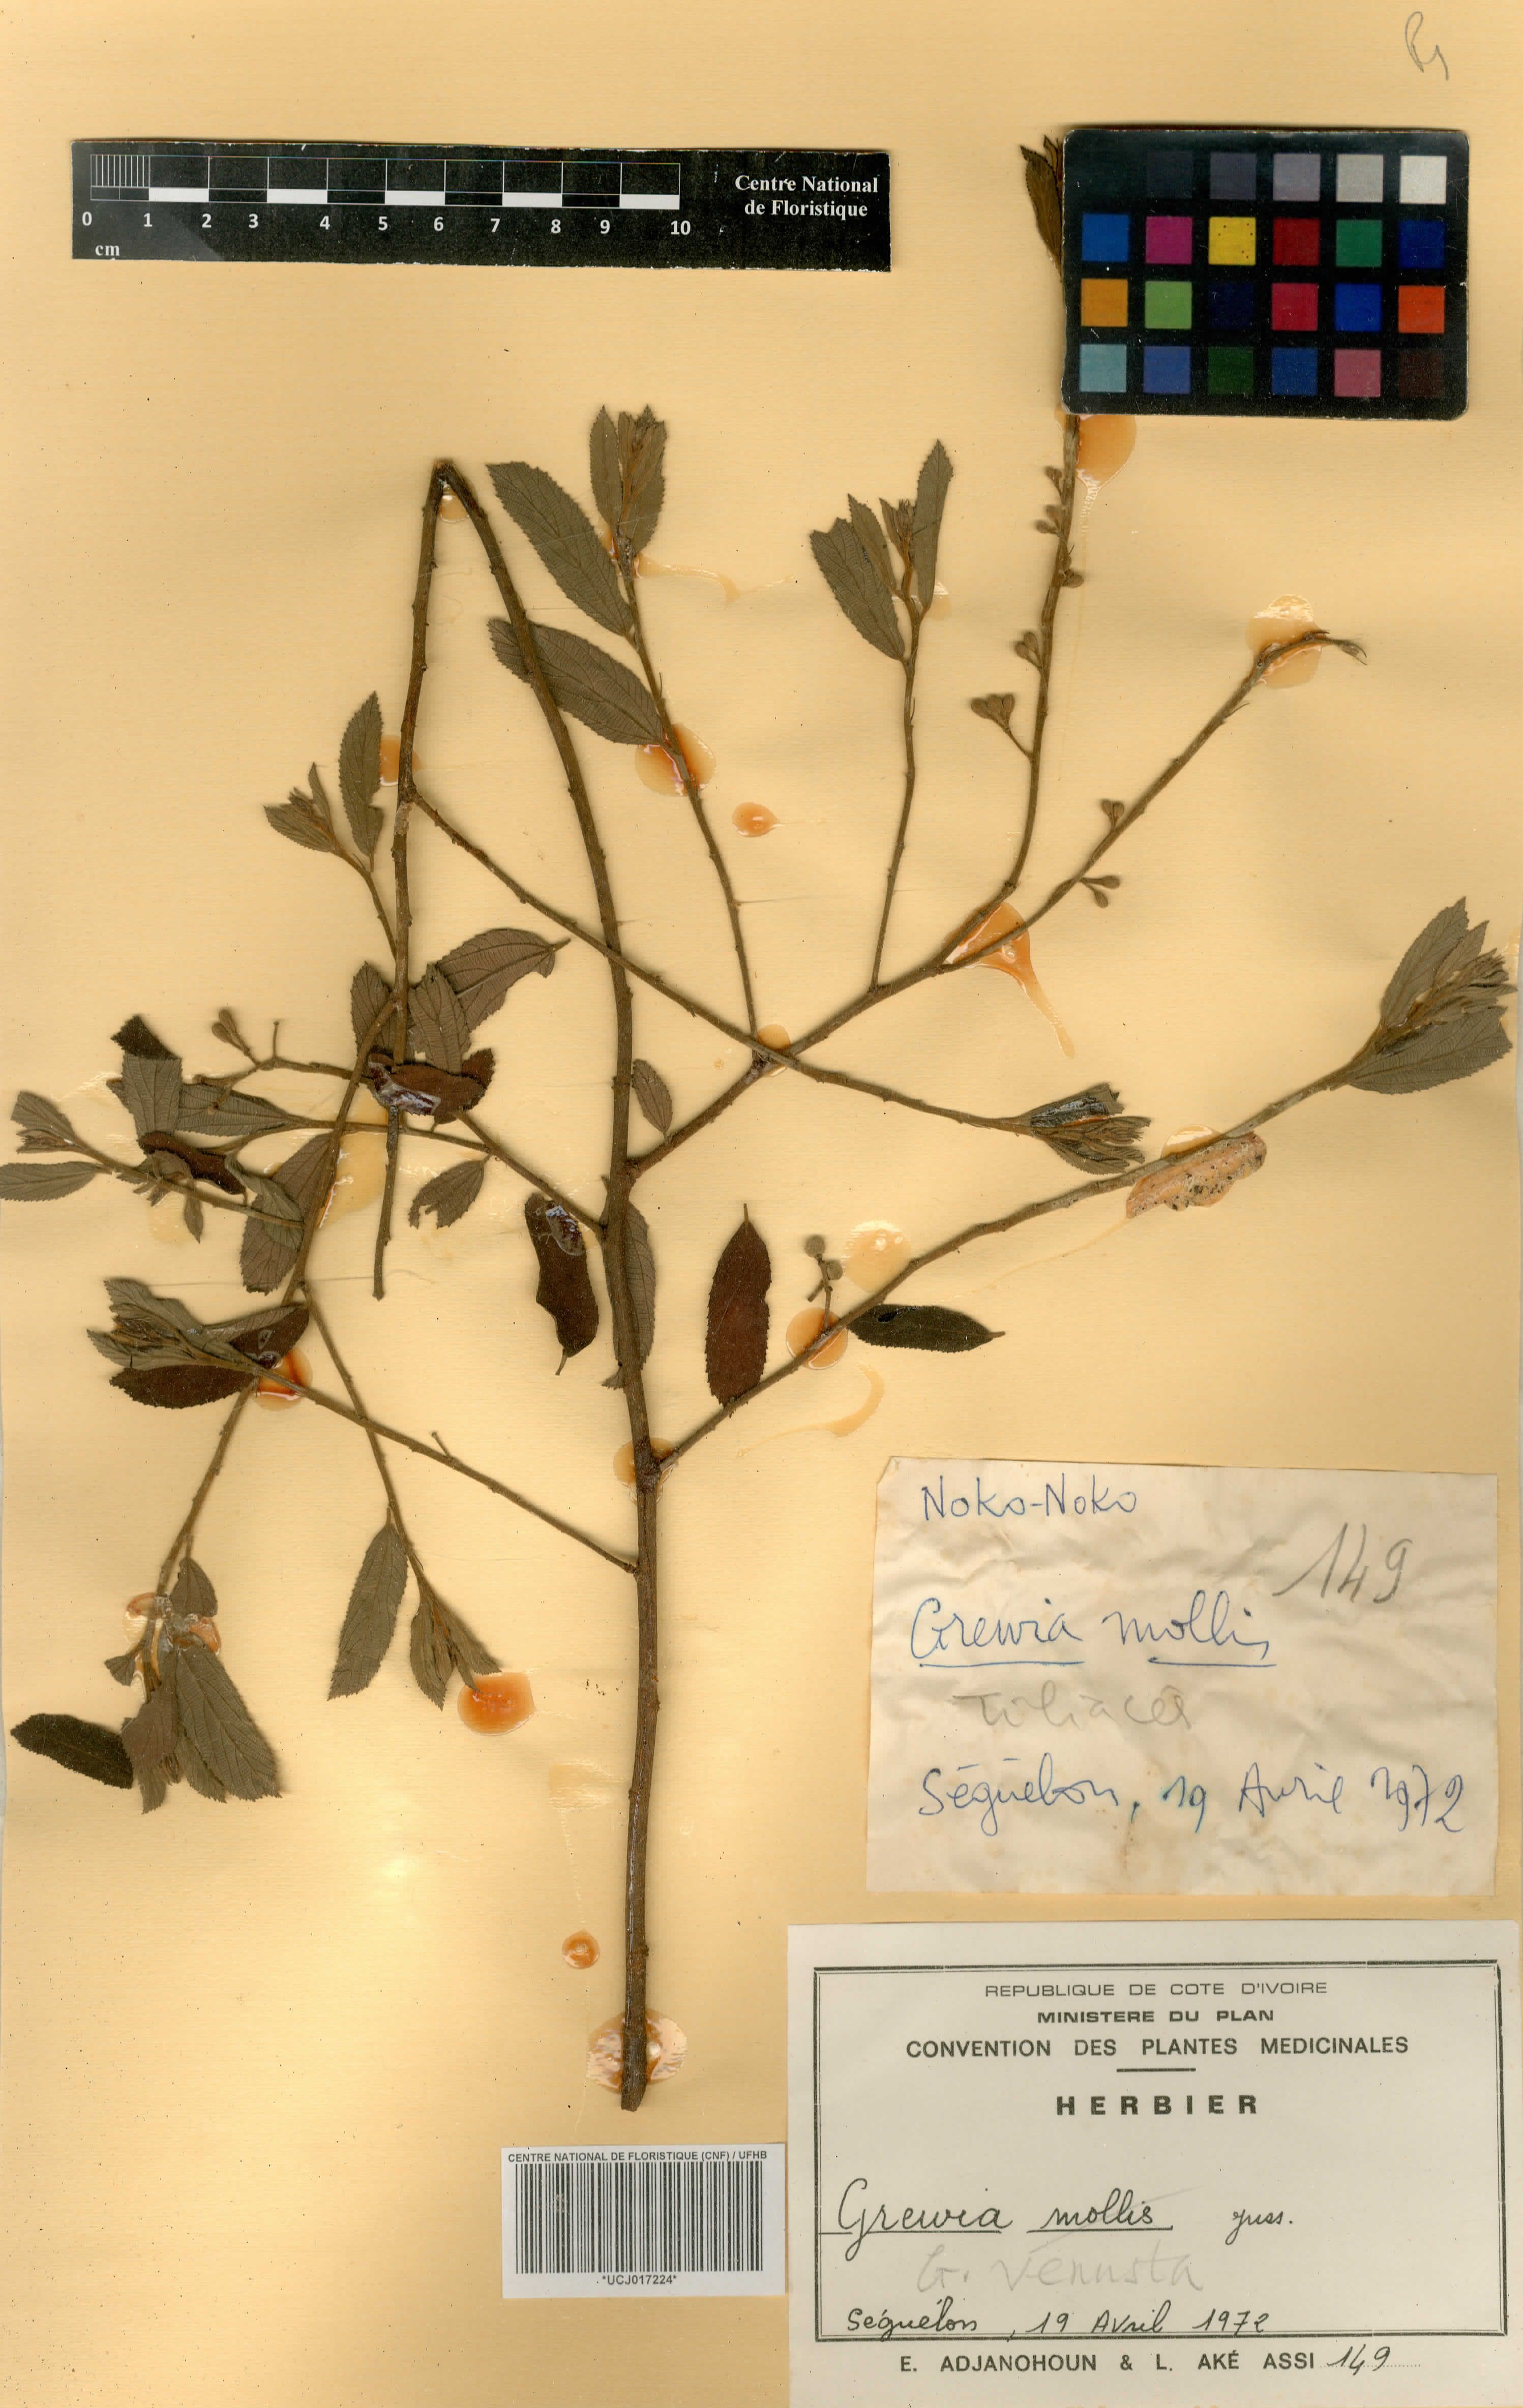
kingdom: Plantae
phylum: Tracheophyta
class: Magnoliopsida
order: Malvales
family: Malvaceae
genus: Grewia
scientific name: Grewia mollis
